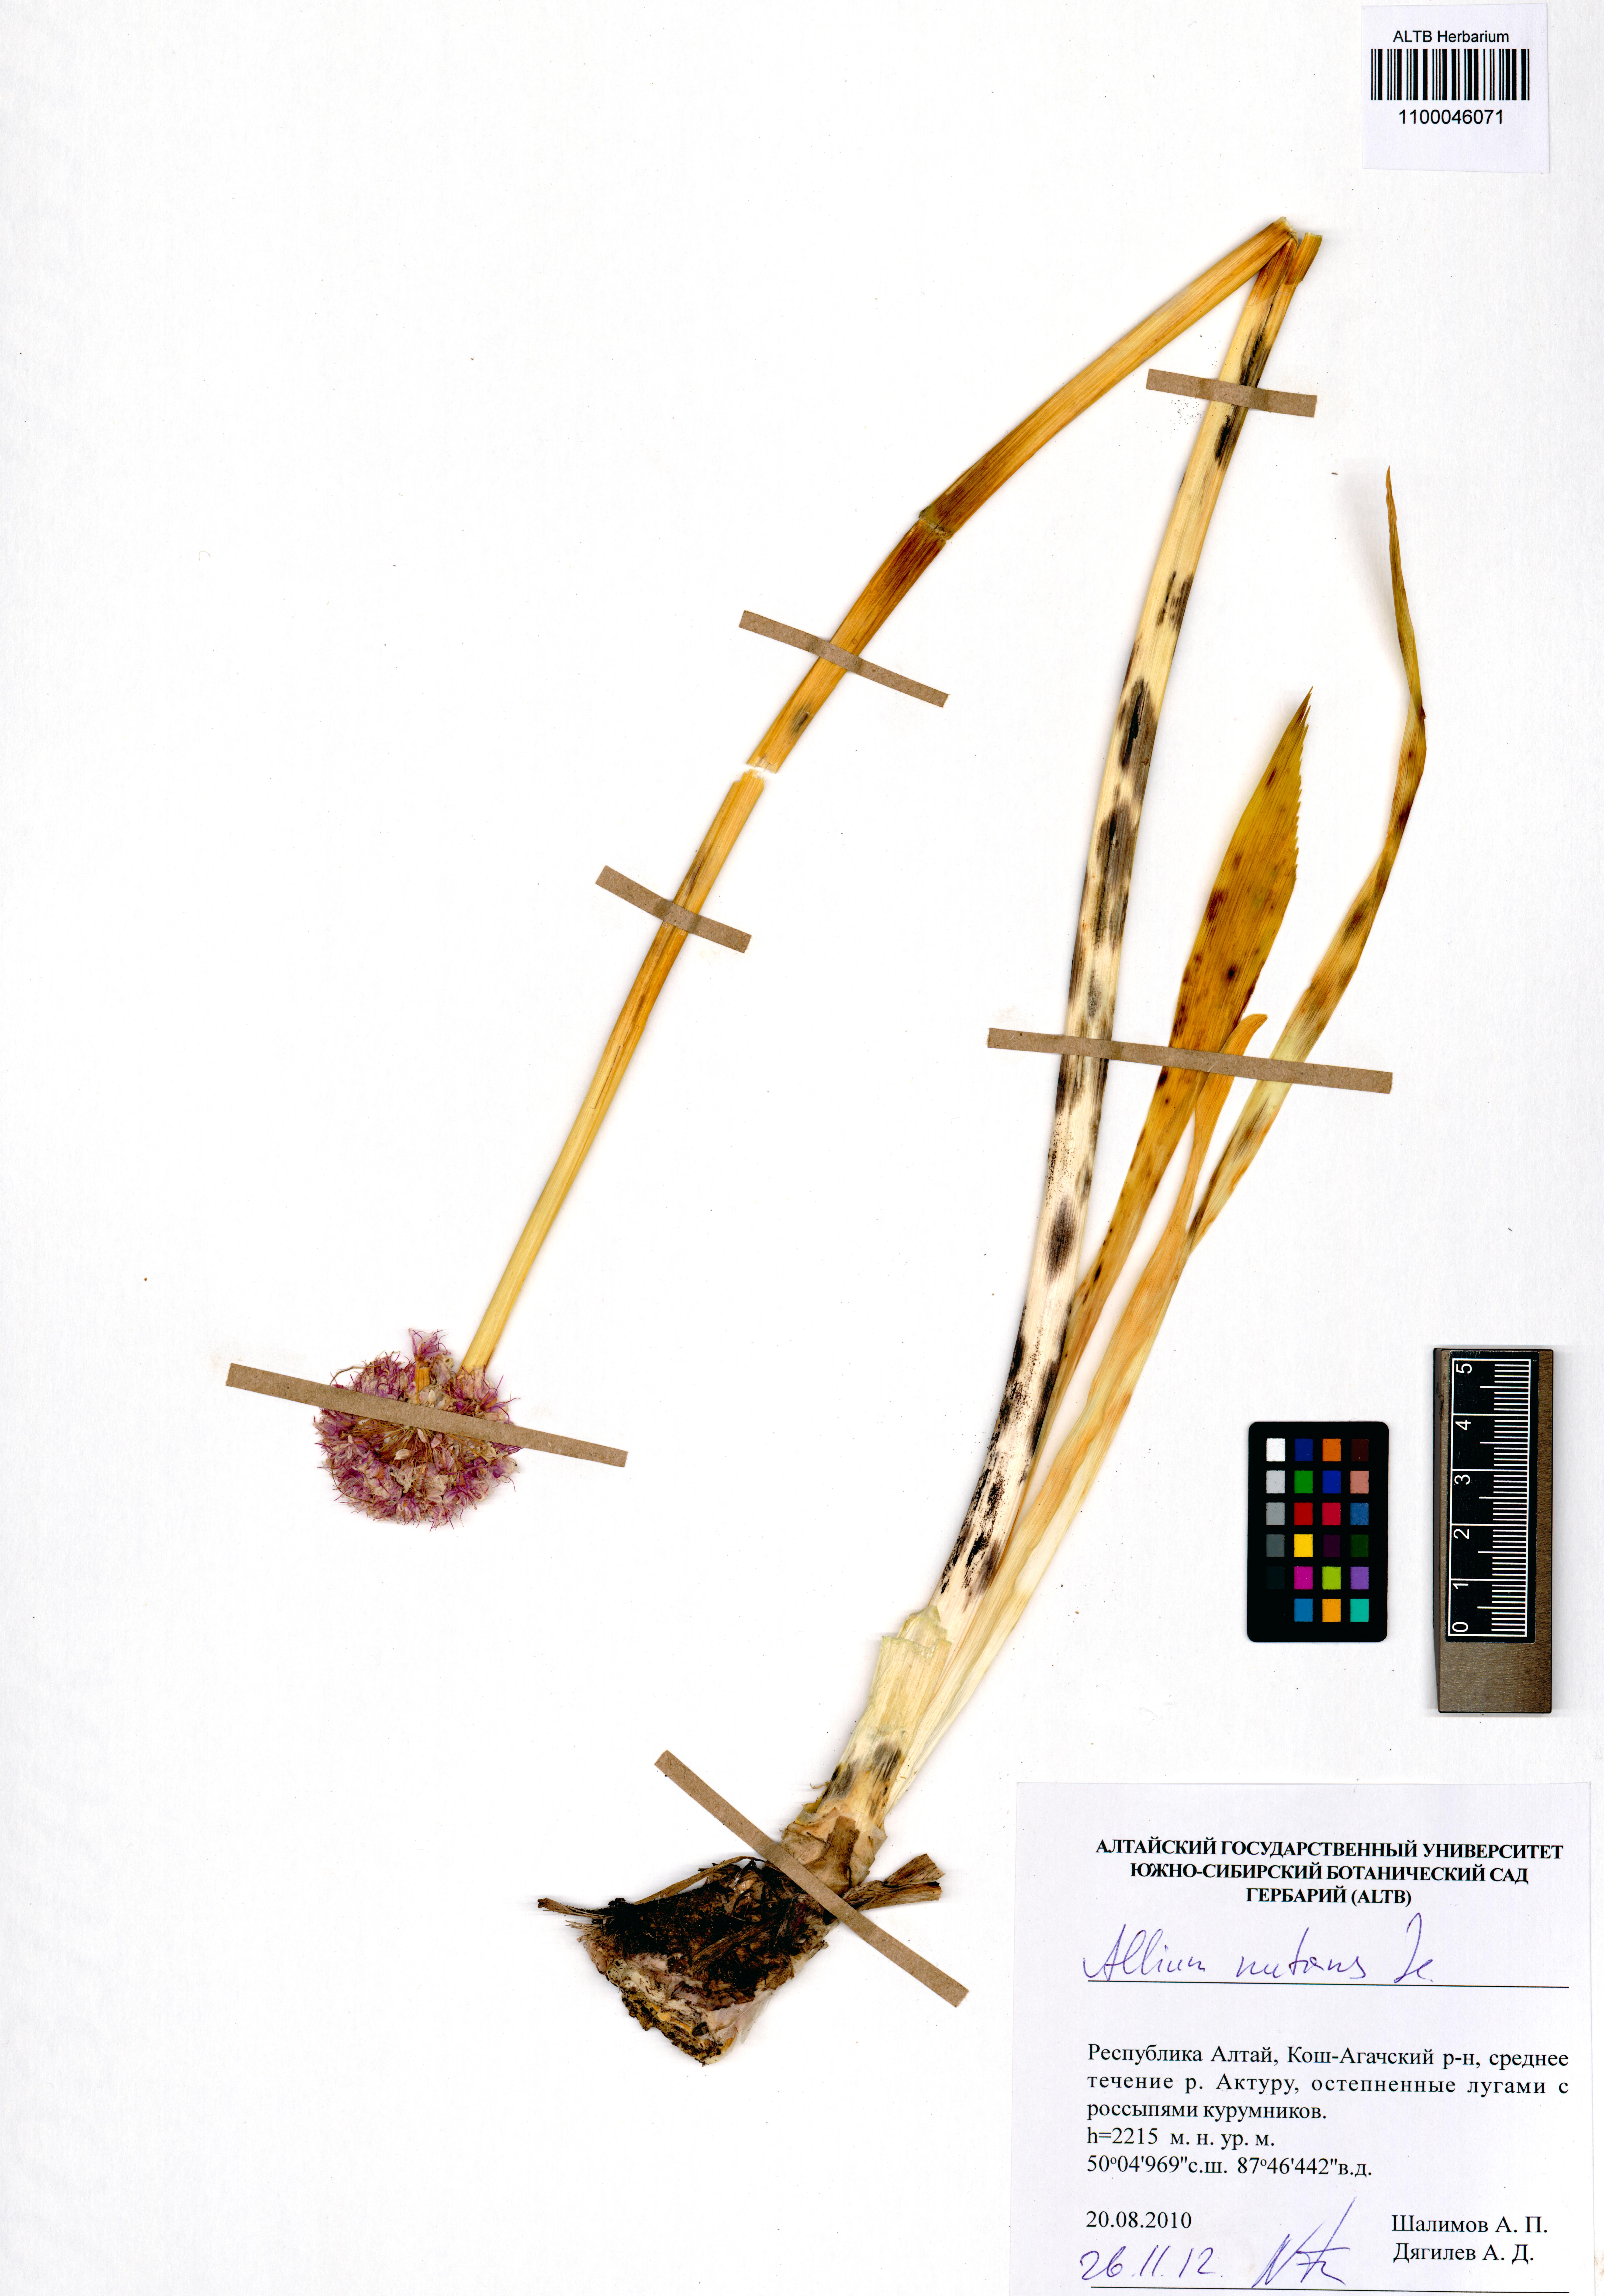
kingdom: Plantae
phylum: Tracheophyta
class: Liliopsida
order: Asparagales
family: Amaryllidaceae
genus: Allium
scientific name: Allium nutans
